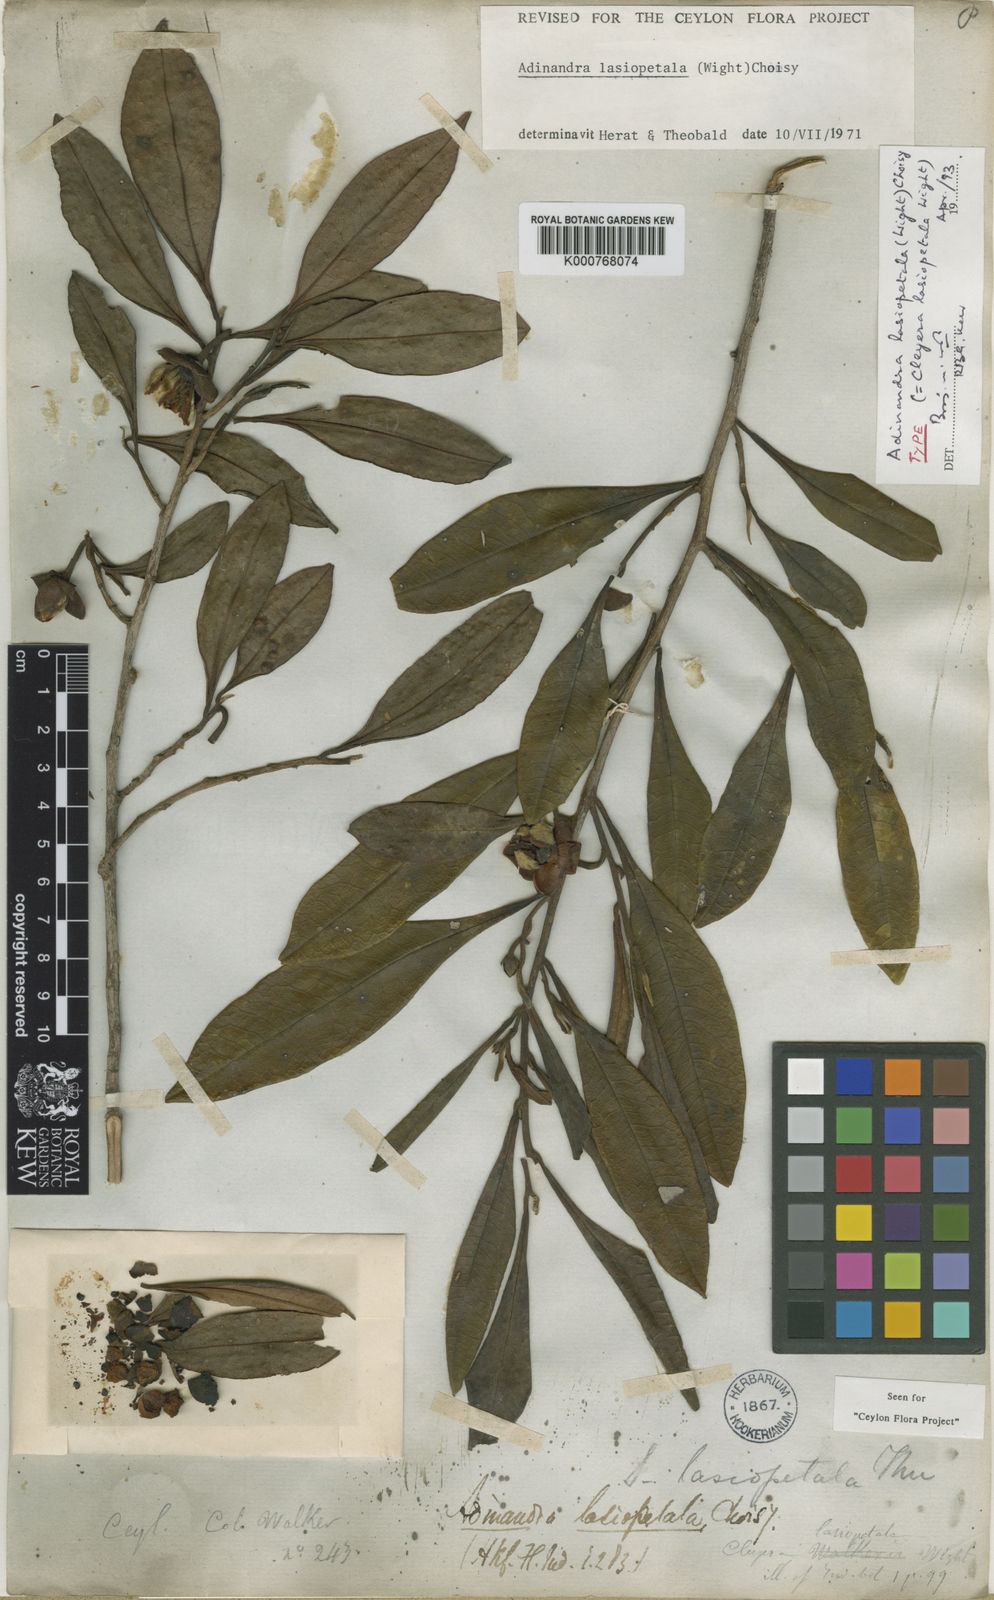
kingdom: Plantae
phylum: Tracheophyta
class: Magnoliopsida
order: Ericales
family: Pentaphylacaceae
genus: Adinandra
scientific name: Adinandra lasiopetala
